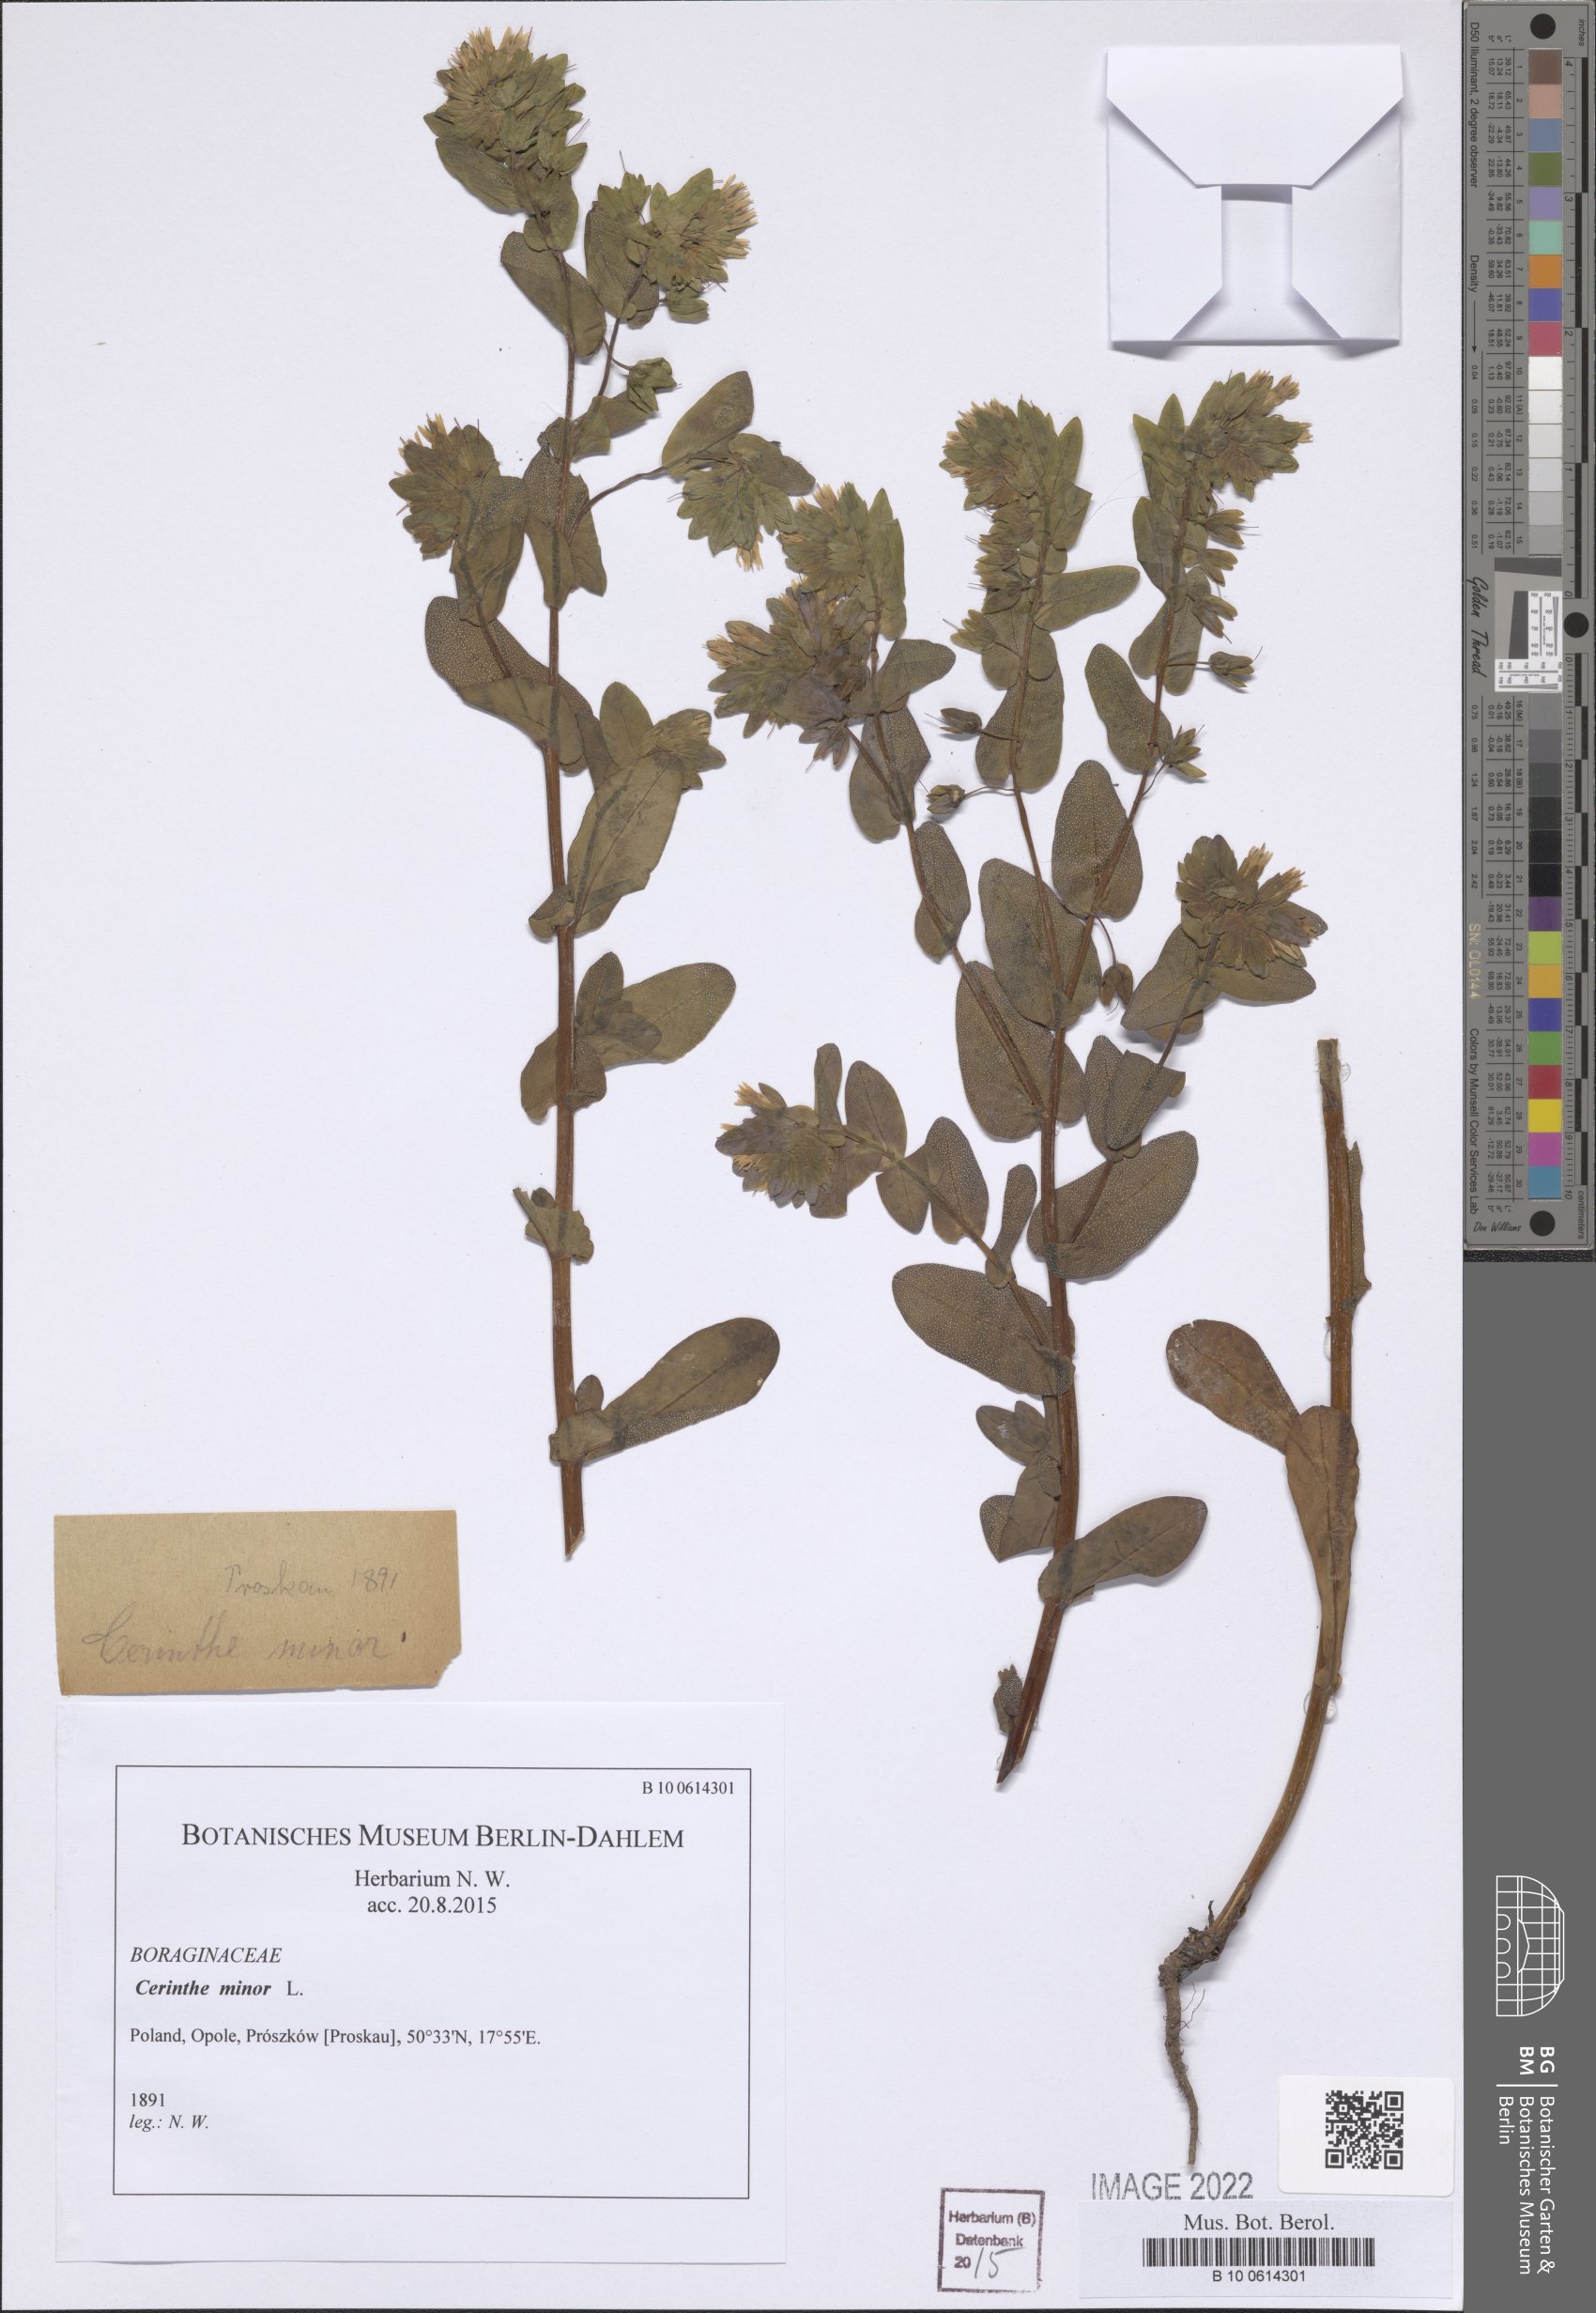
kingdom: Plantae
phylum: Tracheophyta
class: Magnoliopsida
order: Boraginales
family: Boraginaceae
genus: Cerinthe
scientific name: Cerinthe minor
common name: Lesser honeywort
